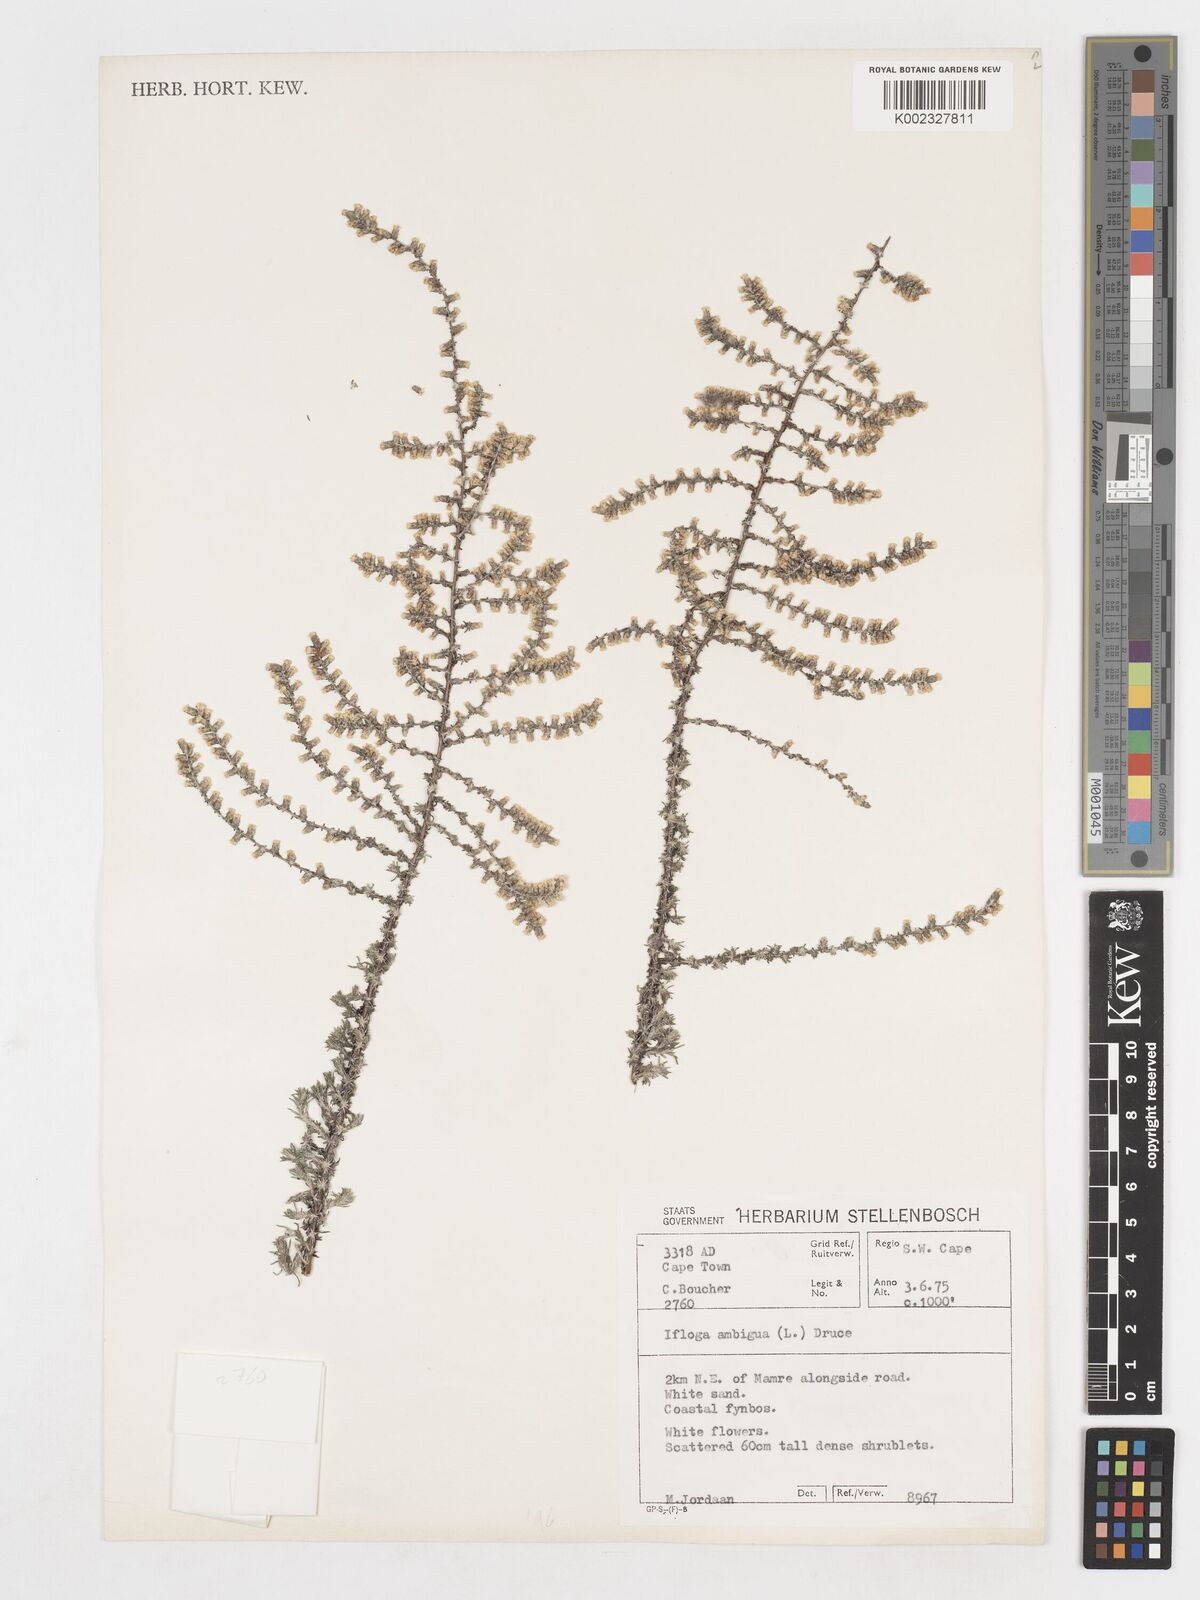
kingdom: Plantae
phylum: Tracheophyta
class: Magnoliopsida
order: Asterales
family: Asteraceae
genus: Ifloga
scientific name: Ifloga ambigua
